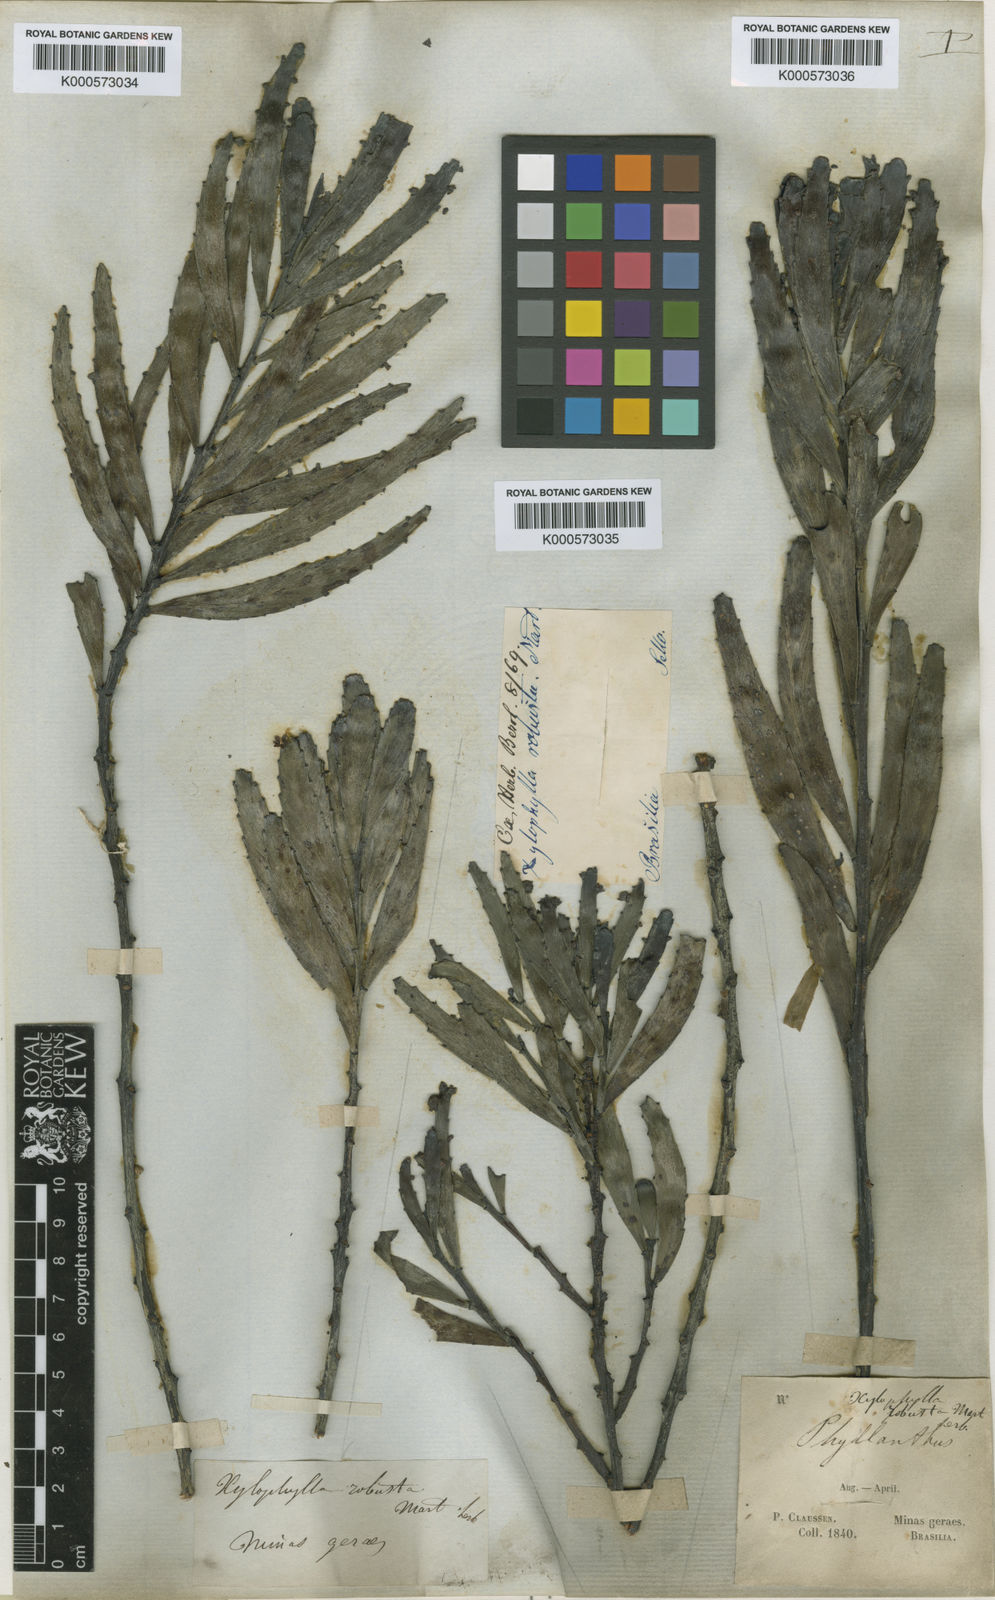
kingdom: Plantae
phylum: Tracheophyta
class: Magnoliopsida
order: Malpighiales
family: Phyllanthaceae
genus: Phyllanthus
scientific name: Phyllanthus
